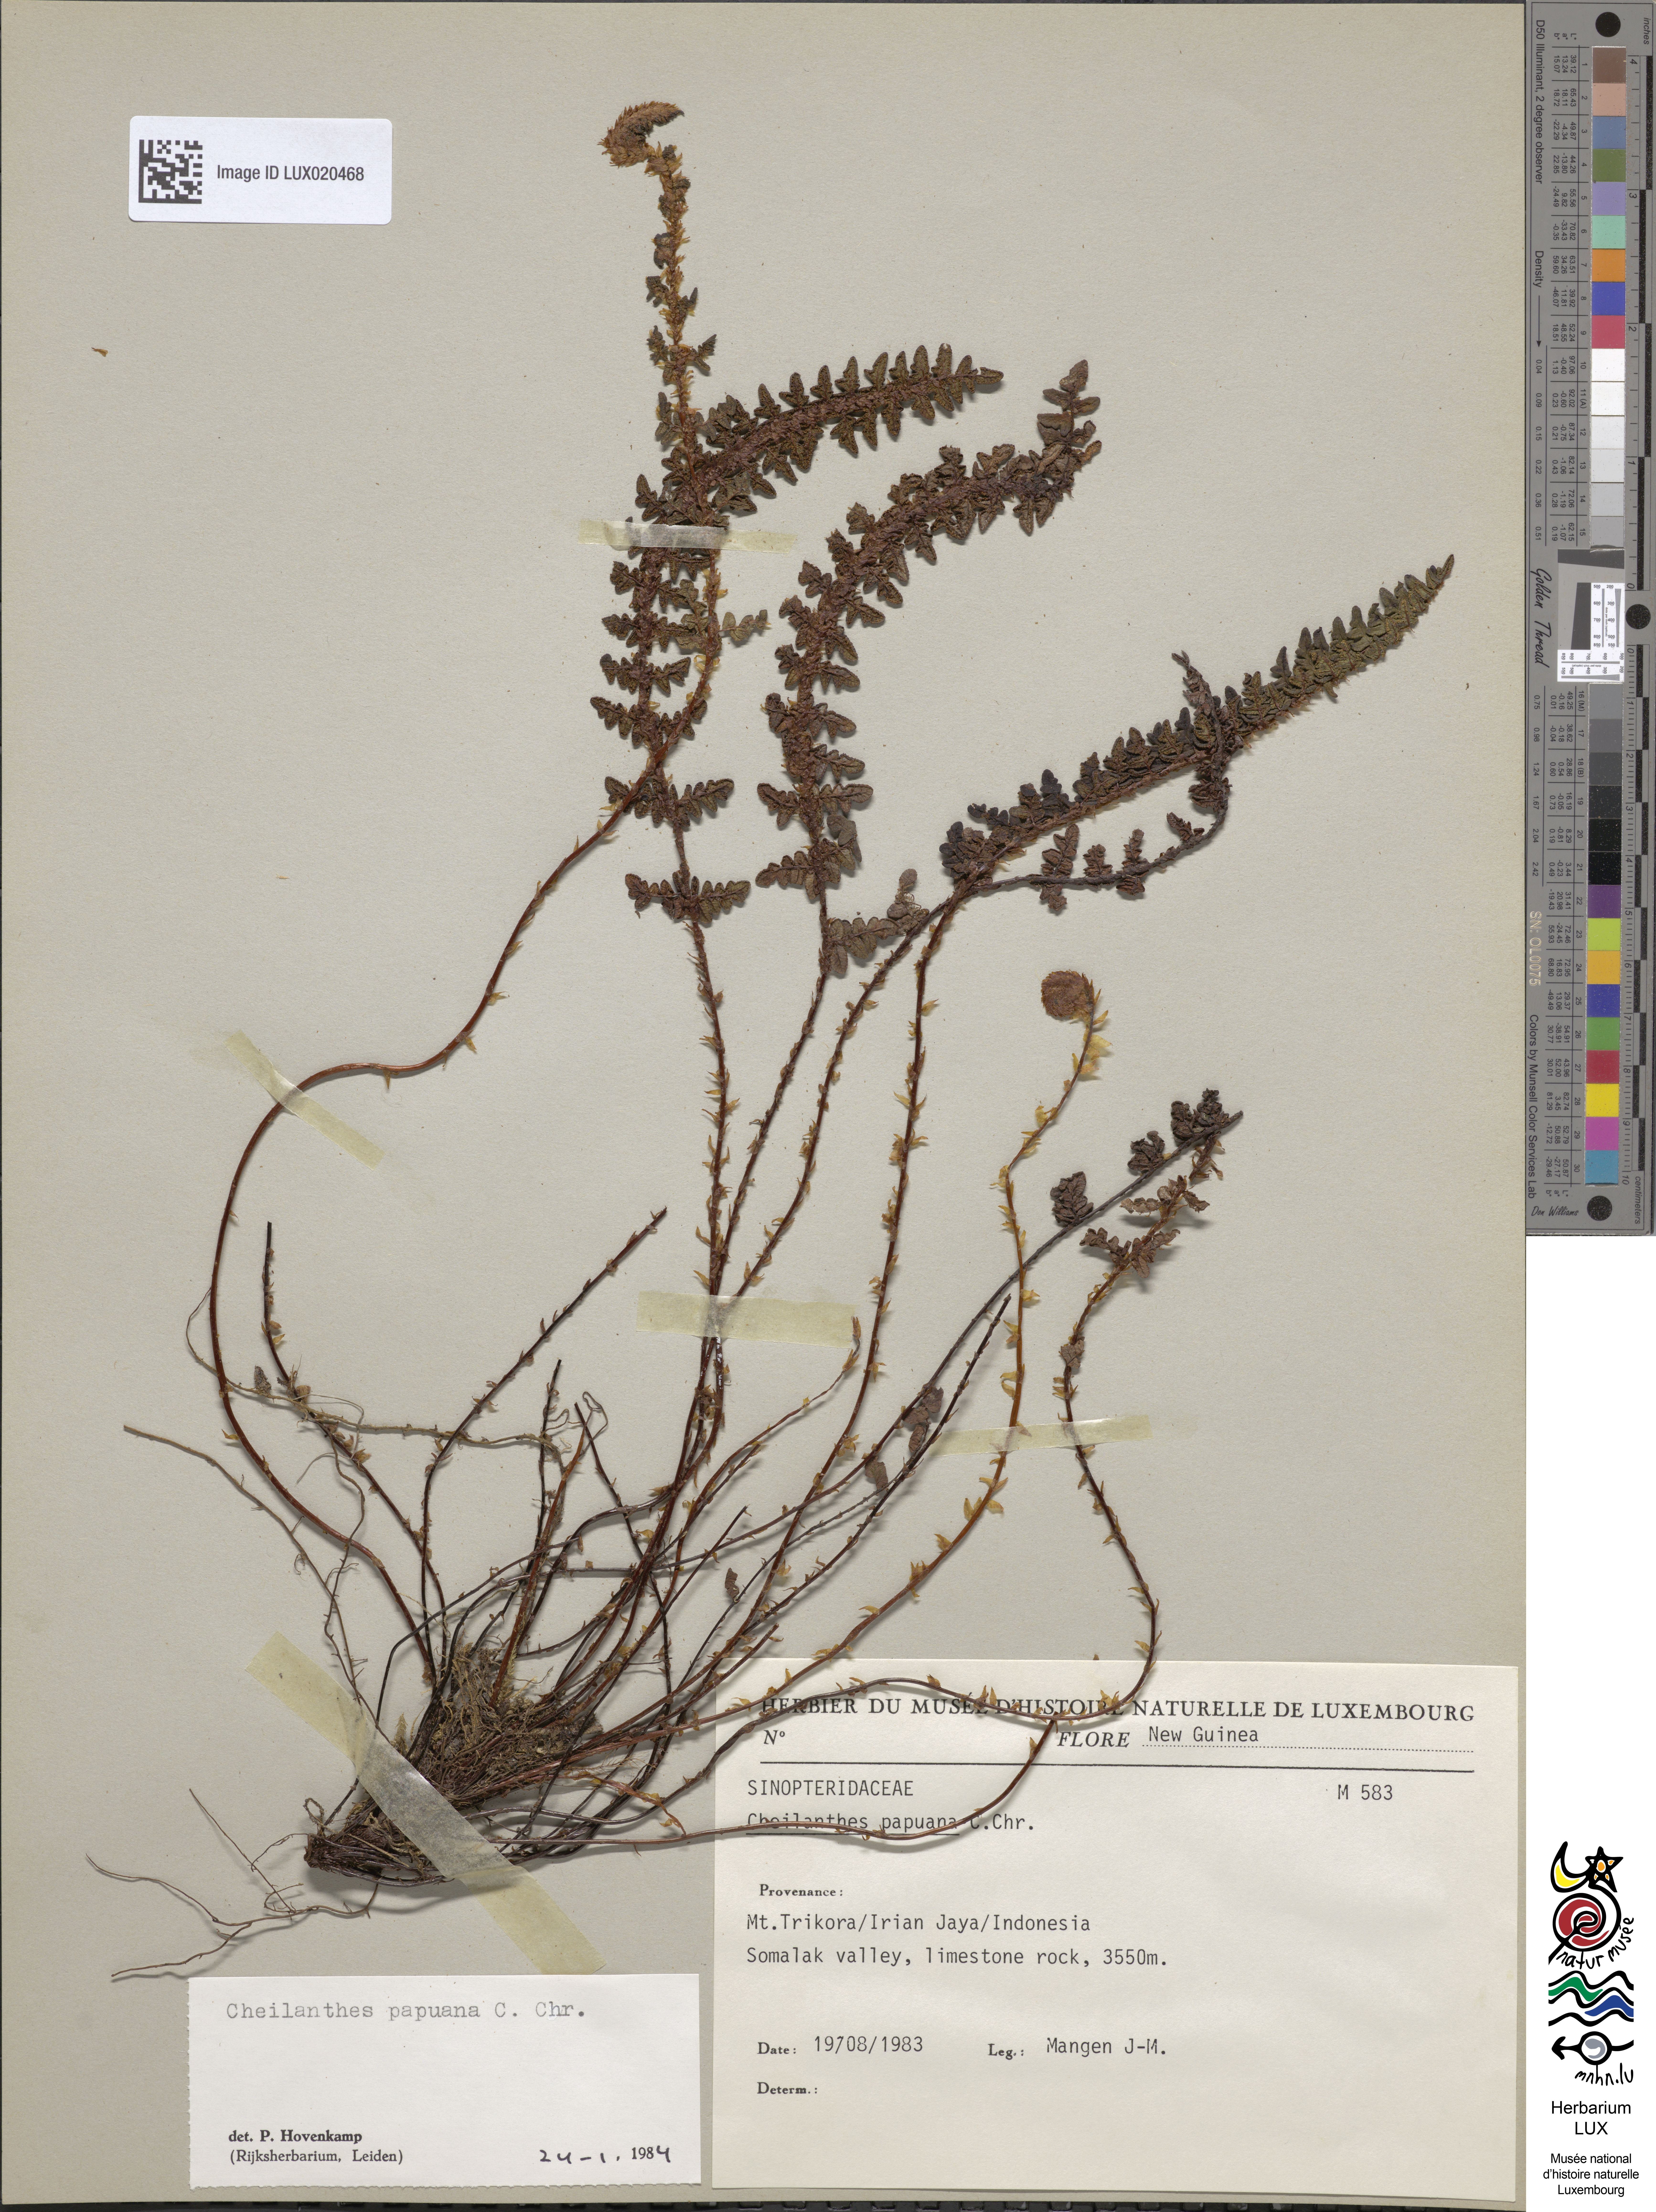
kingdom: Plantae
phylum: Tracheophyta
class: Polypodiopsida
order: Polypodiales
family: Pteridaceae
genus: Aleuritopteris
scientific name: Aleuritopteris papuana
